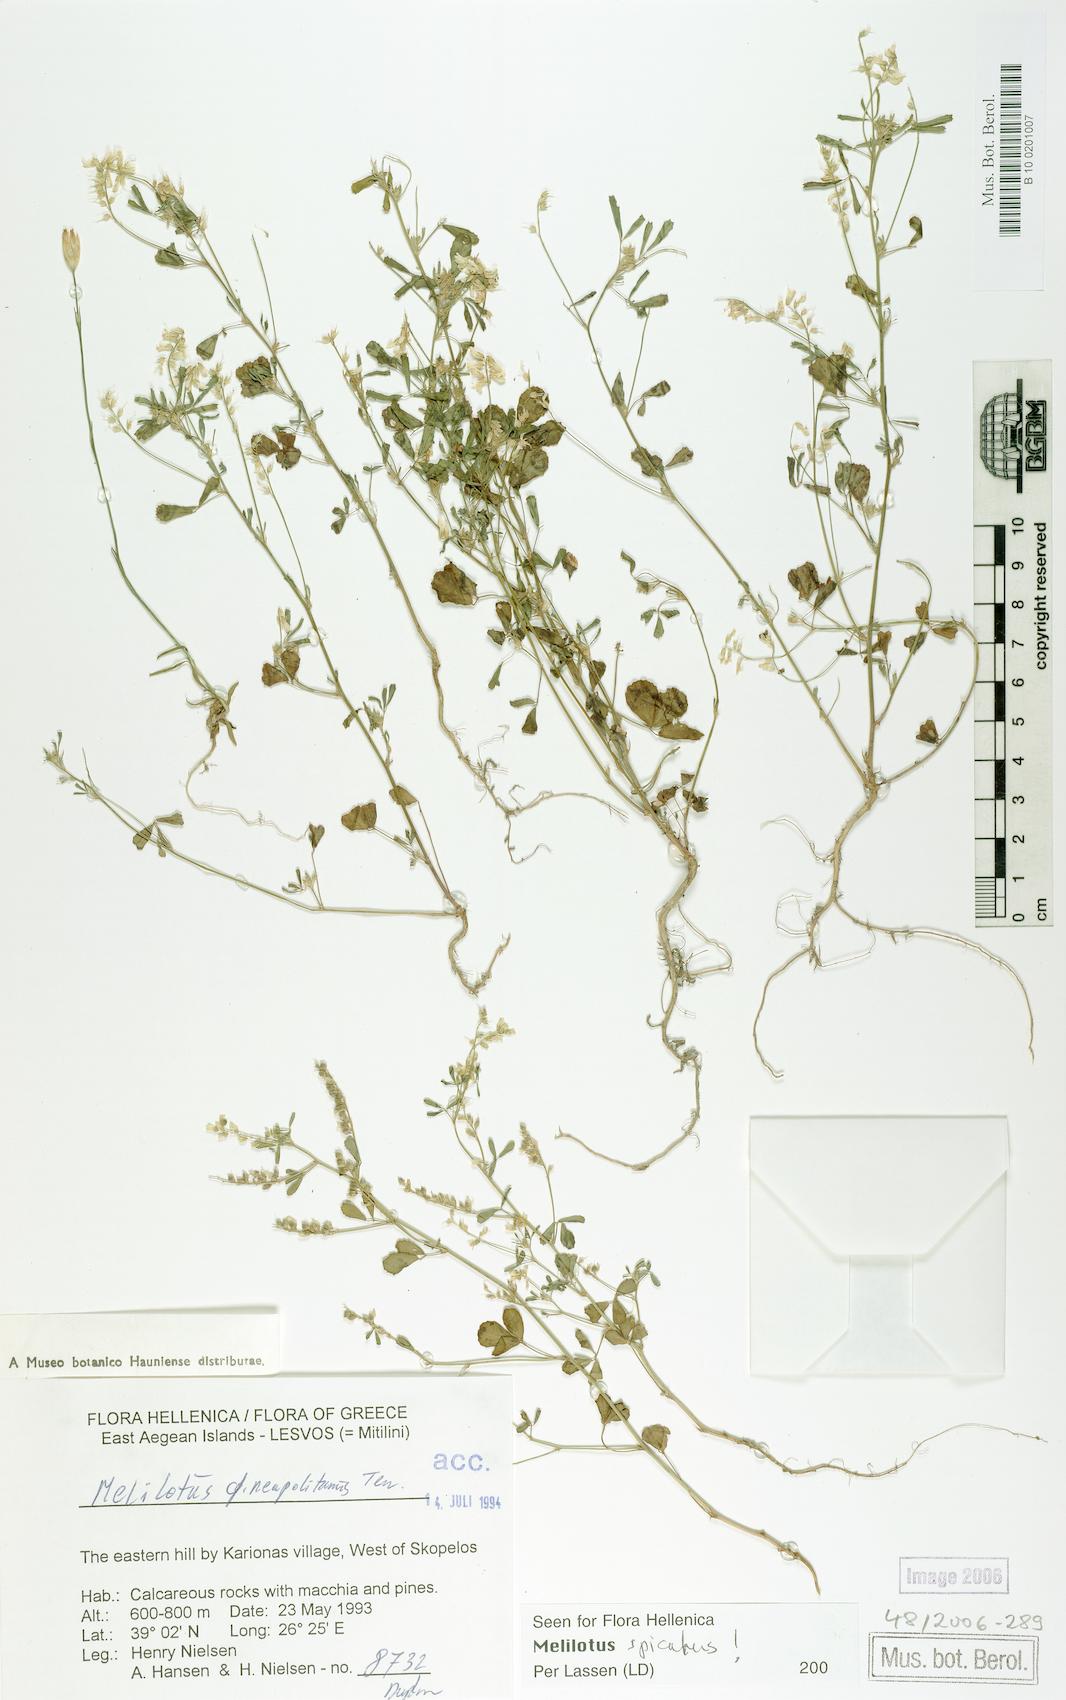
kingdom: Plantae
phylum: Tracheophyta
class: Magnoliopsida
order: Fabales
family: Fabaceae
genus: Melilotus
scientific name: Melilotus neapolitanus
